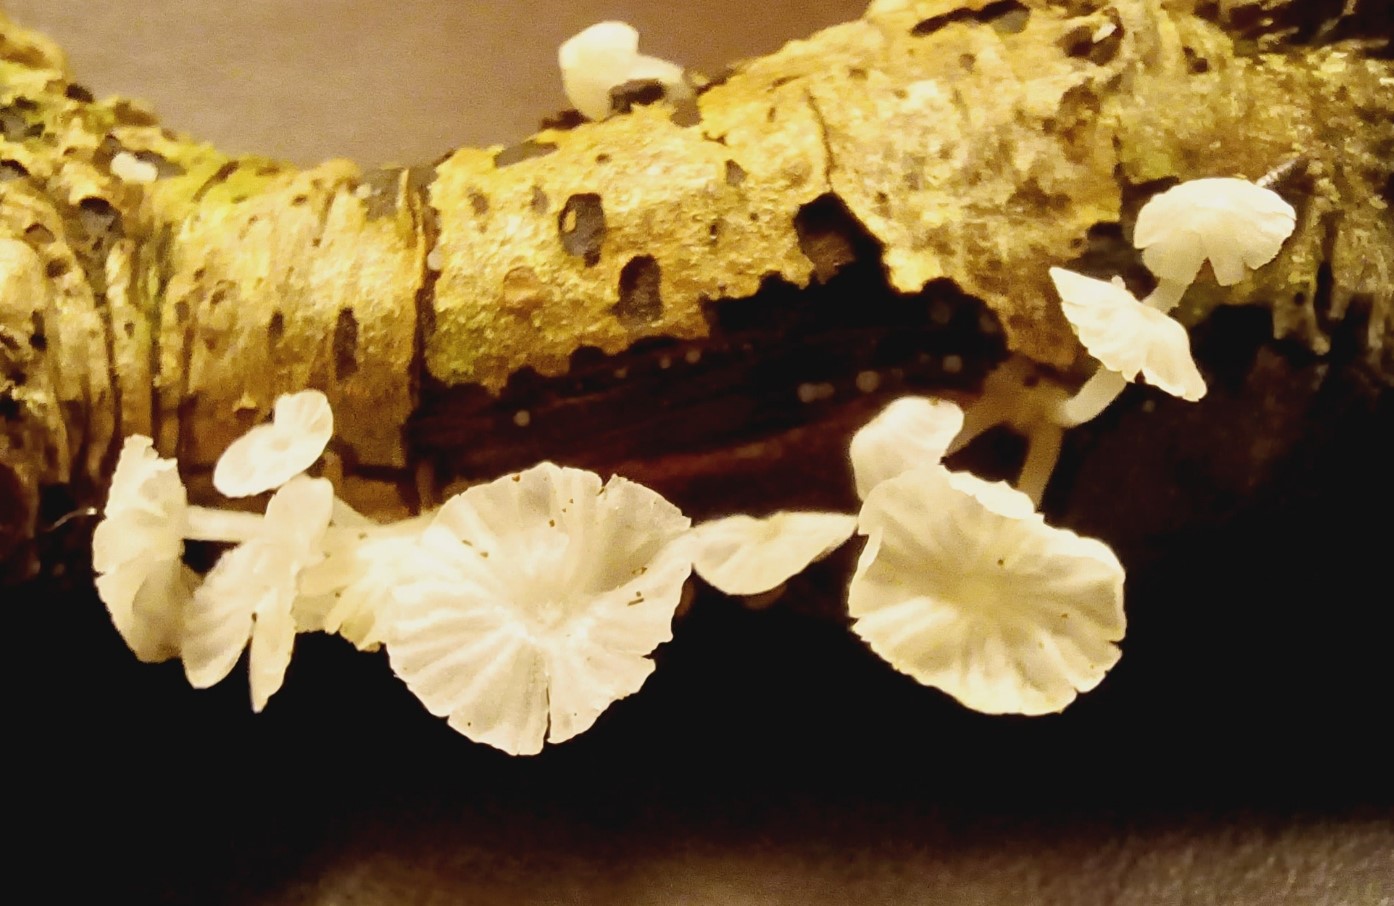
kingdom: Fungi
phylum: Basidiomycota
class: Agaricomycetes
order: Agaricales
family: Tricholomataceae
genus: Delicatula
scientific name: Delicatula integrella
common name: slørhuesvamp
